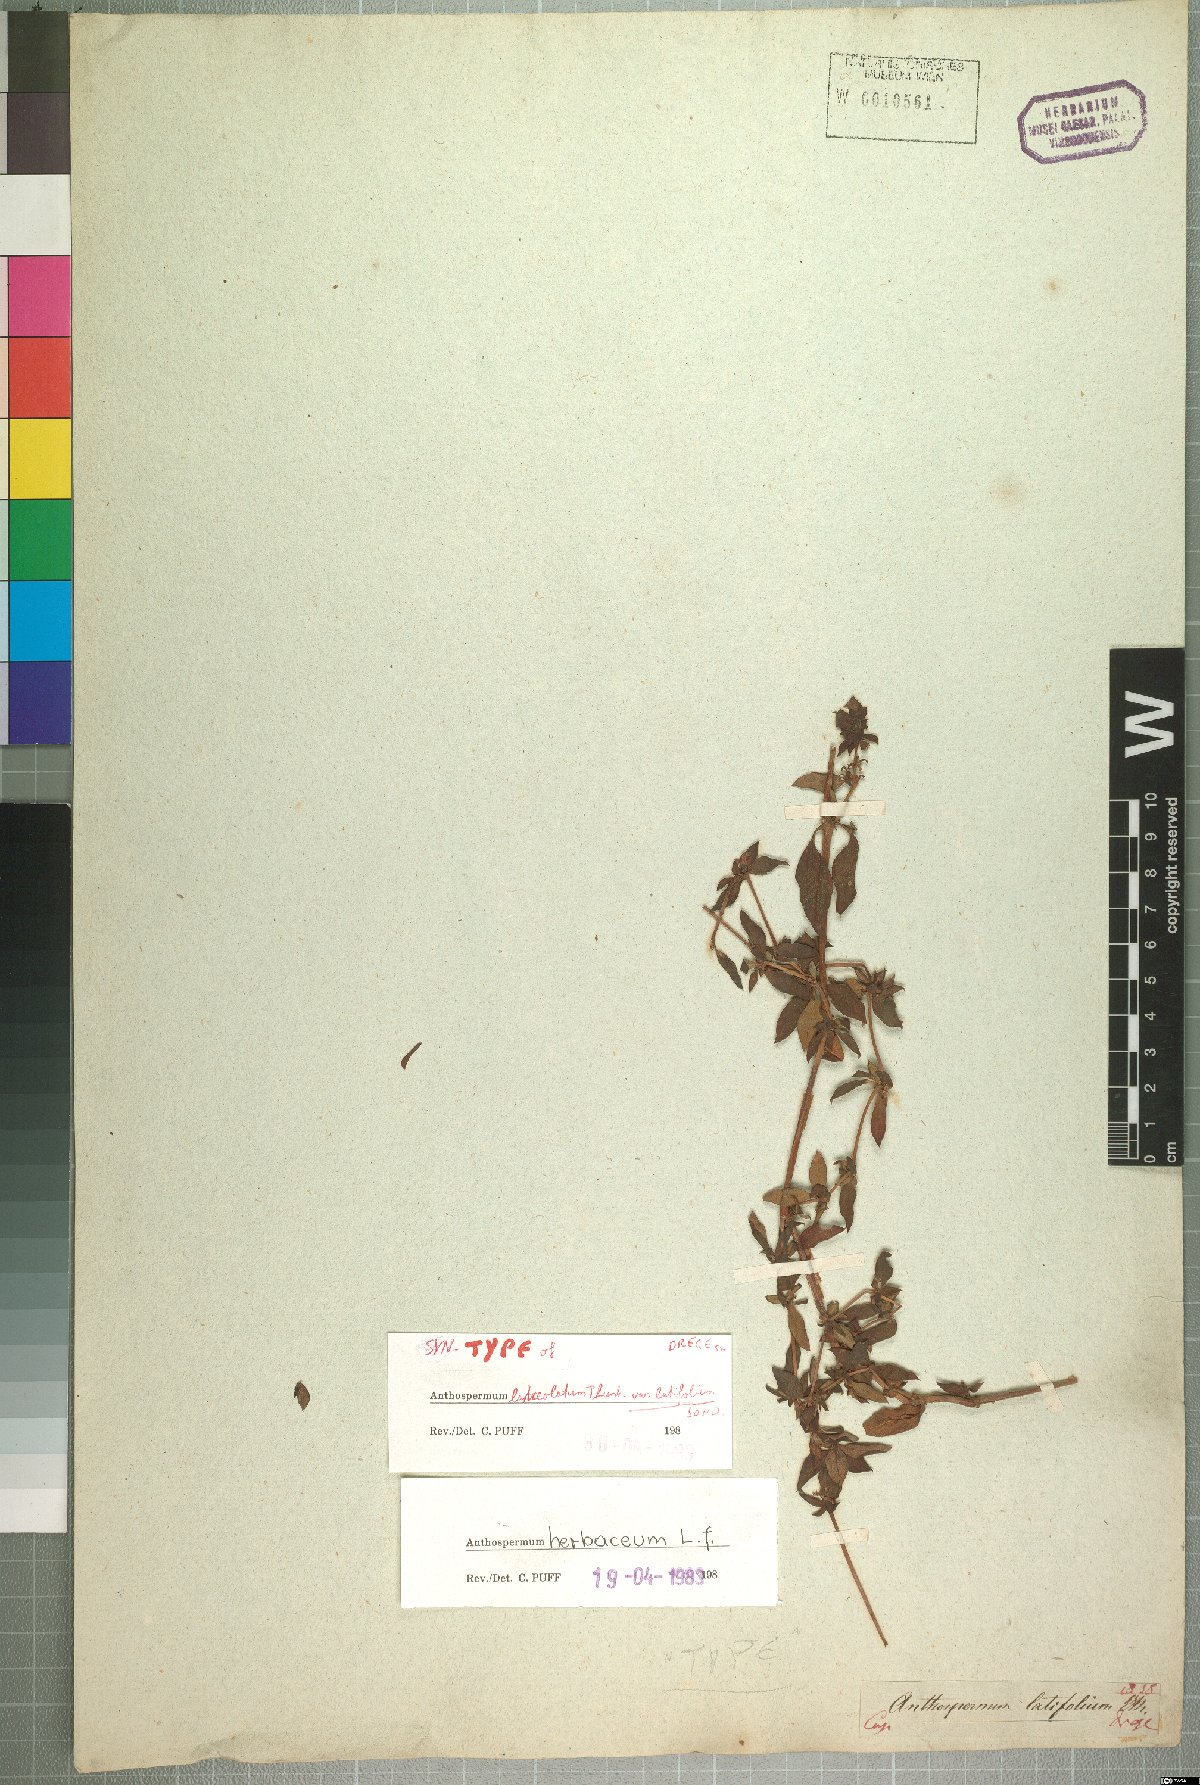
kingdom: Plantae
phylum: Tracheophyta
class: Magnoliopsida
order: Gentianales
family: Rubiaceae
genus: Anthospermum
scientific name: Anthospermum herbaceum
